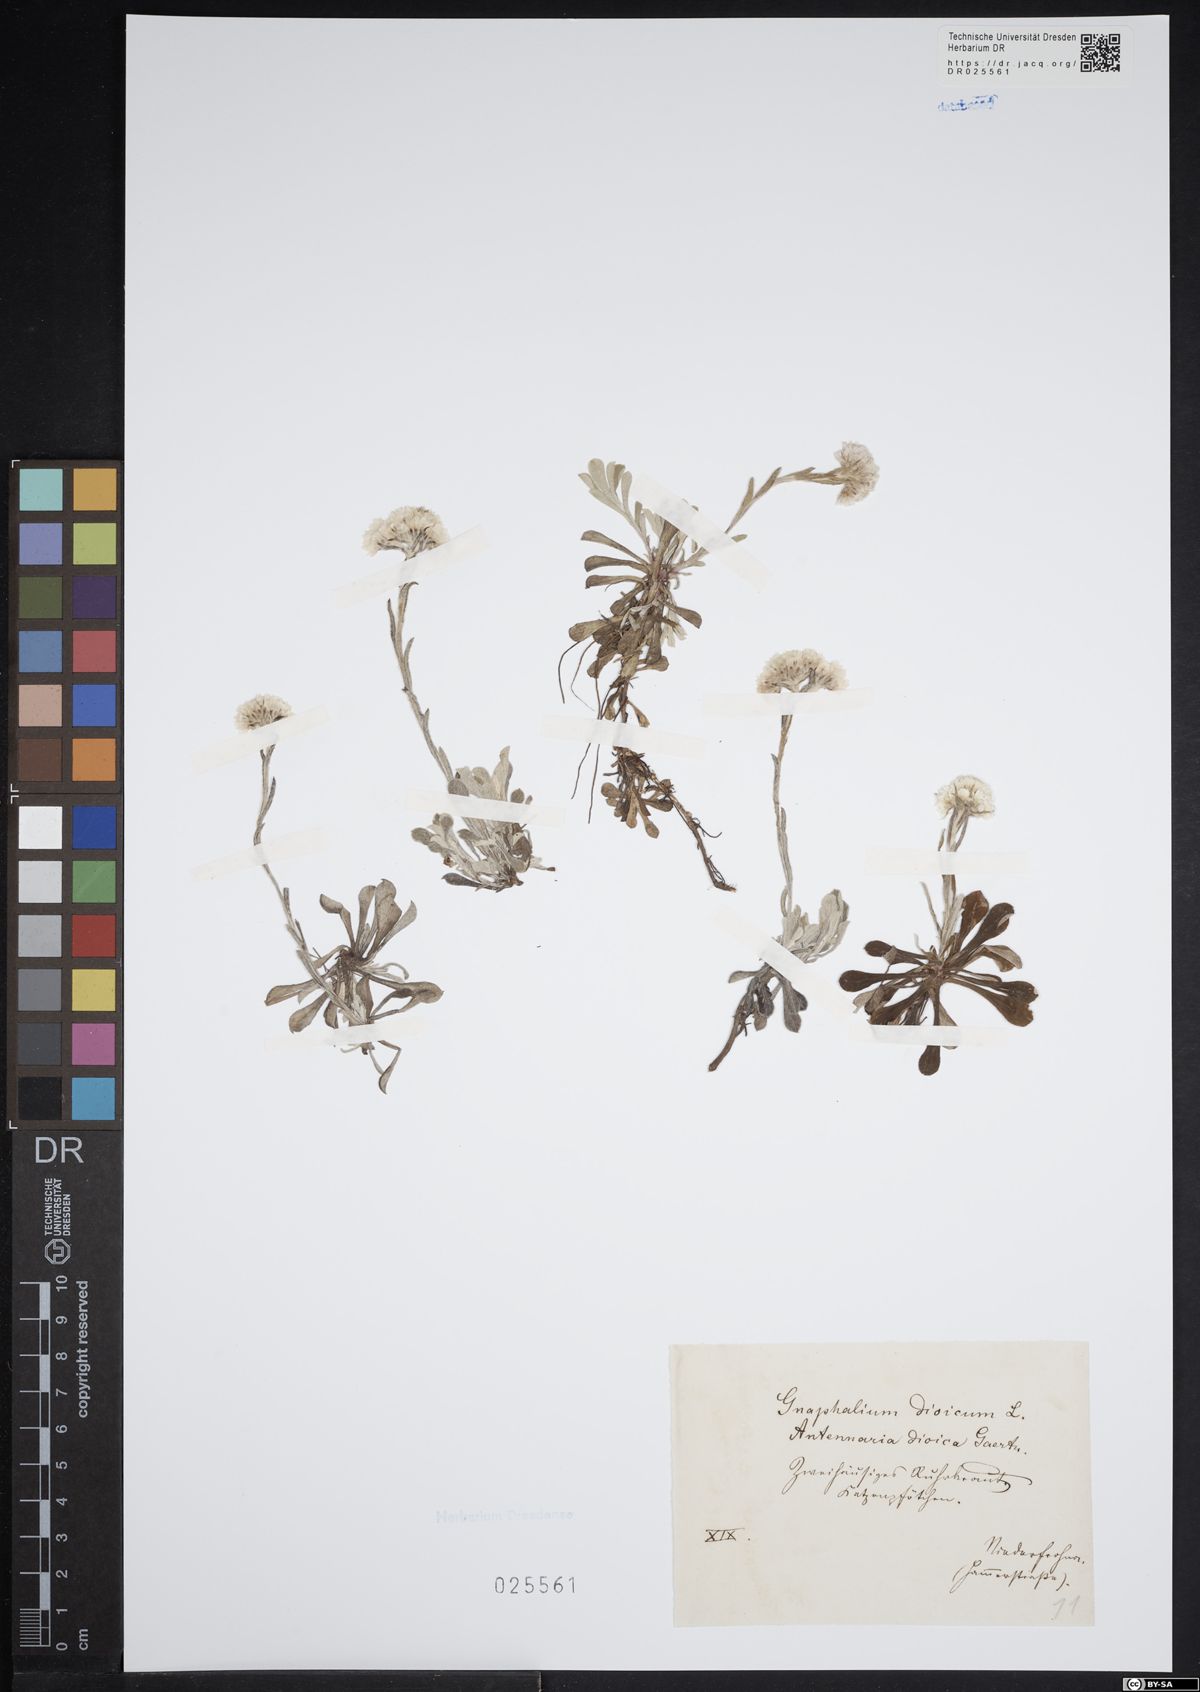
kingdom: Plantae
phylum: Tracheophyta
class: Magnoliopsida
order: Asterales
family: Asteraceae
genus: Antennaria
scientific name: Antennaria dioica
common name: Mountain everlasting
